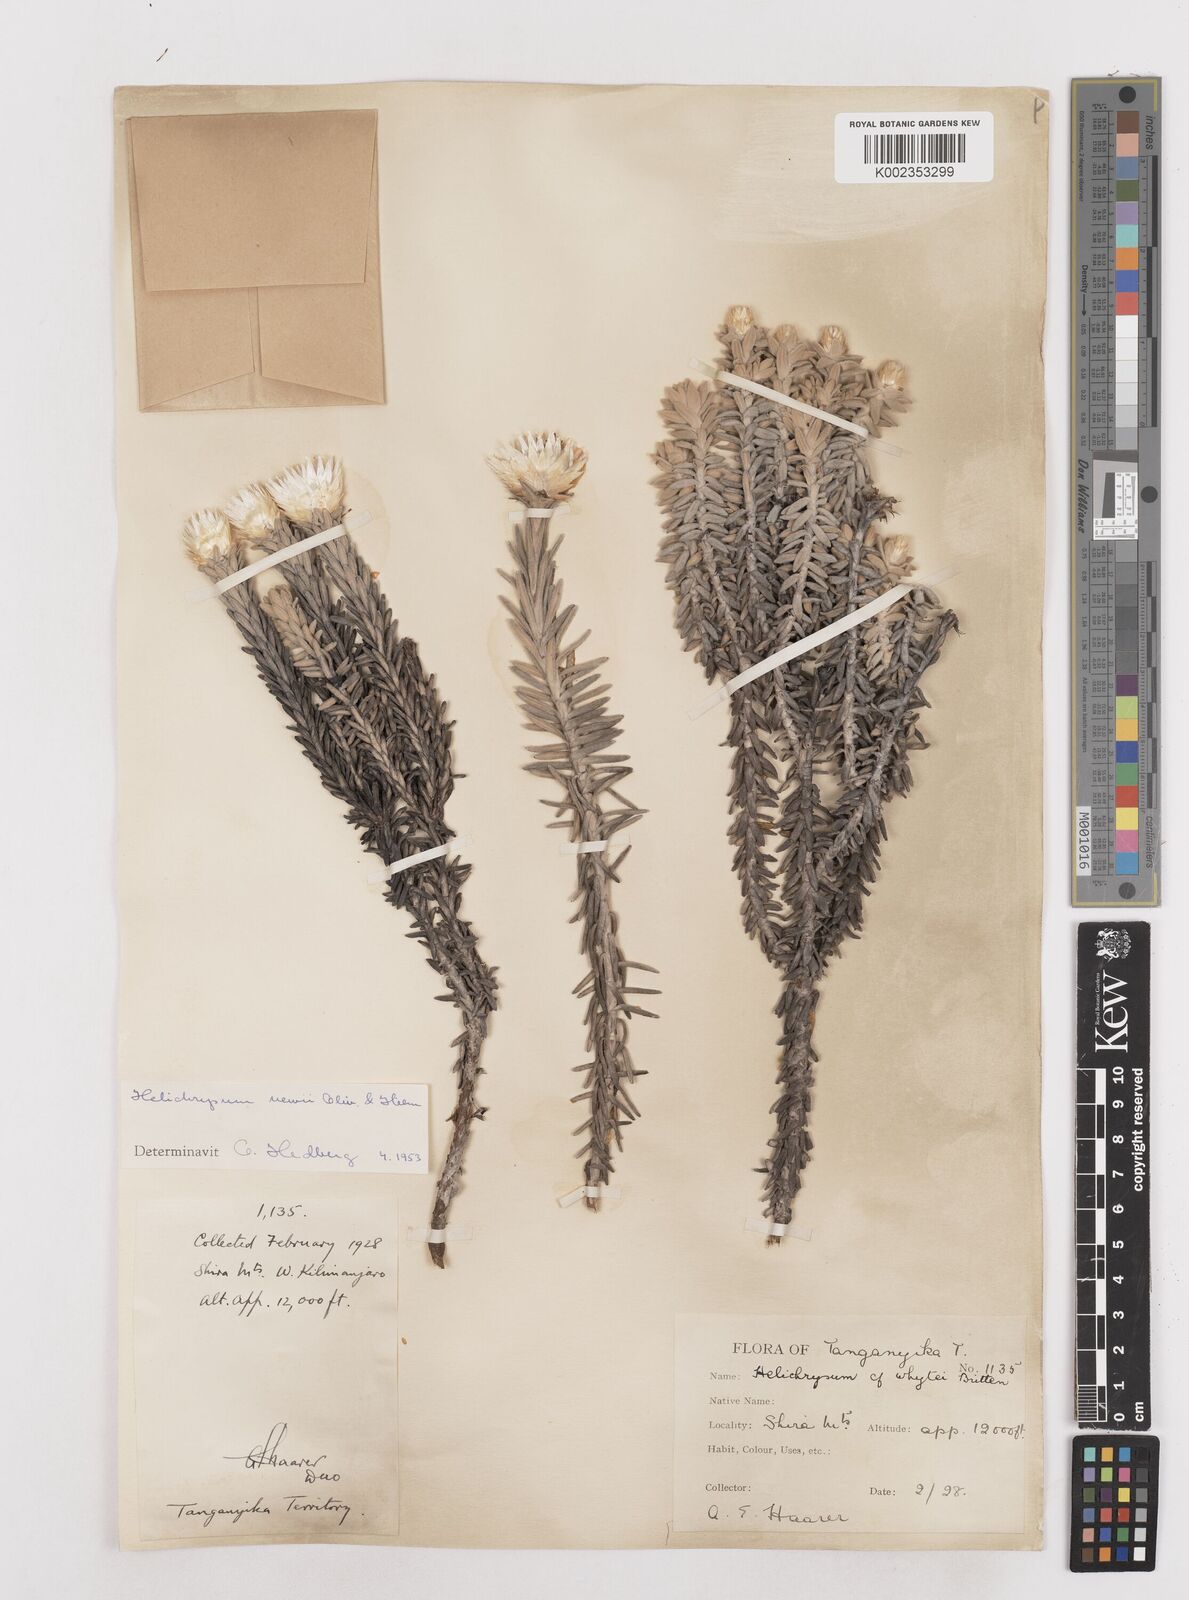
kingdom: Plantae
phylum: Tracheophyta
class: Magnoliopsida
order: Asterales
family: Asteraceae
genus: Helichrysum
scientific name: Helichrysum newii
